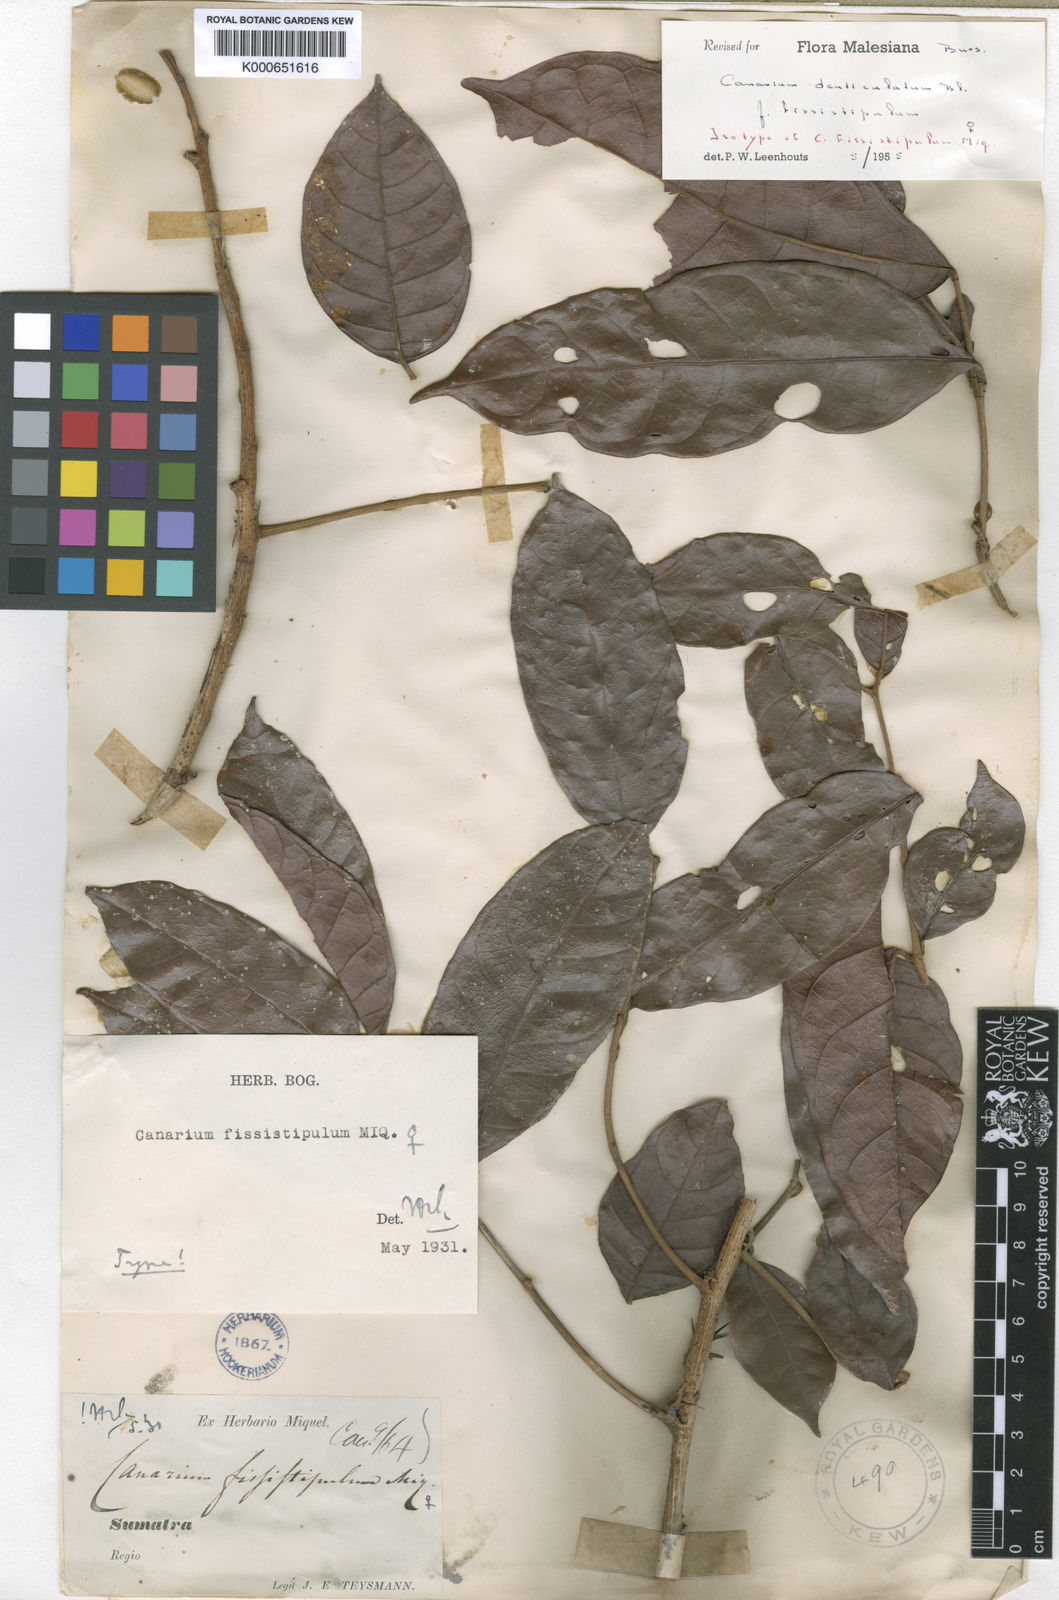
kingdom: Plantae
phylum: Tracheophyta
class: Magnoliopsida
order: Sapindales
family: Burseraceae
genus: Canarium
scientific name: Canarium denticulatum
